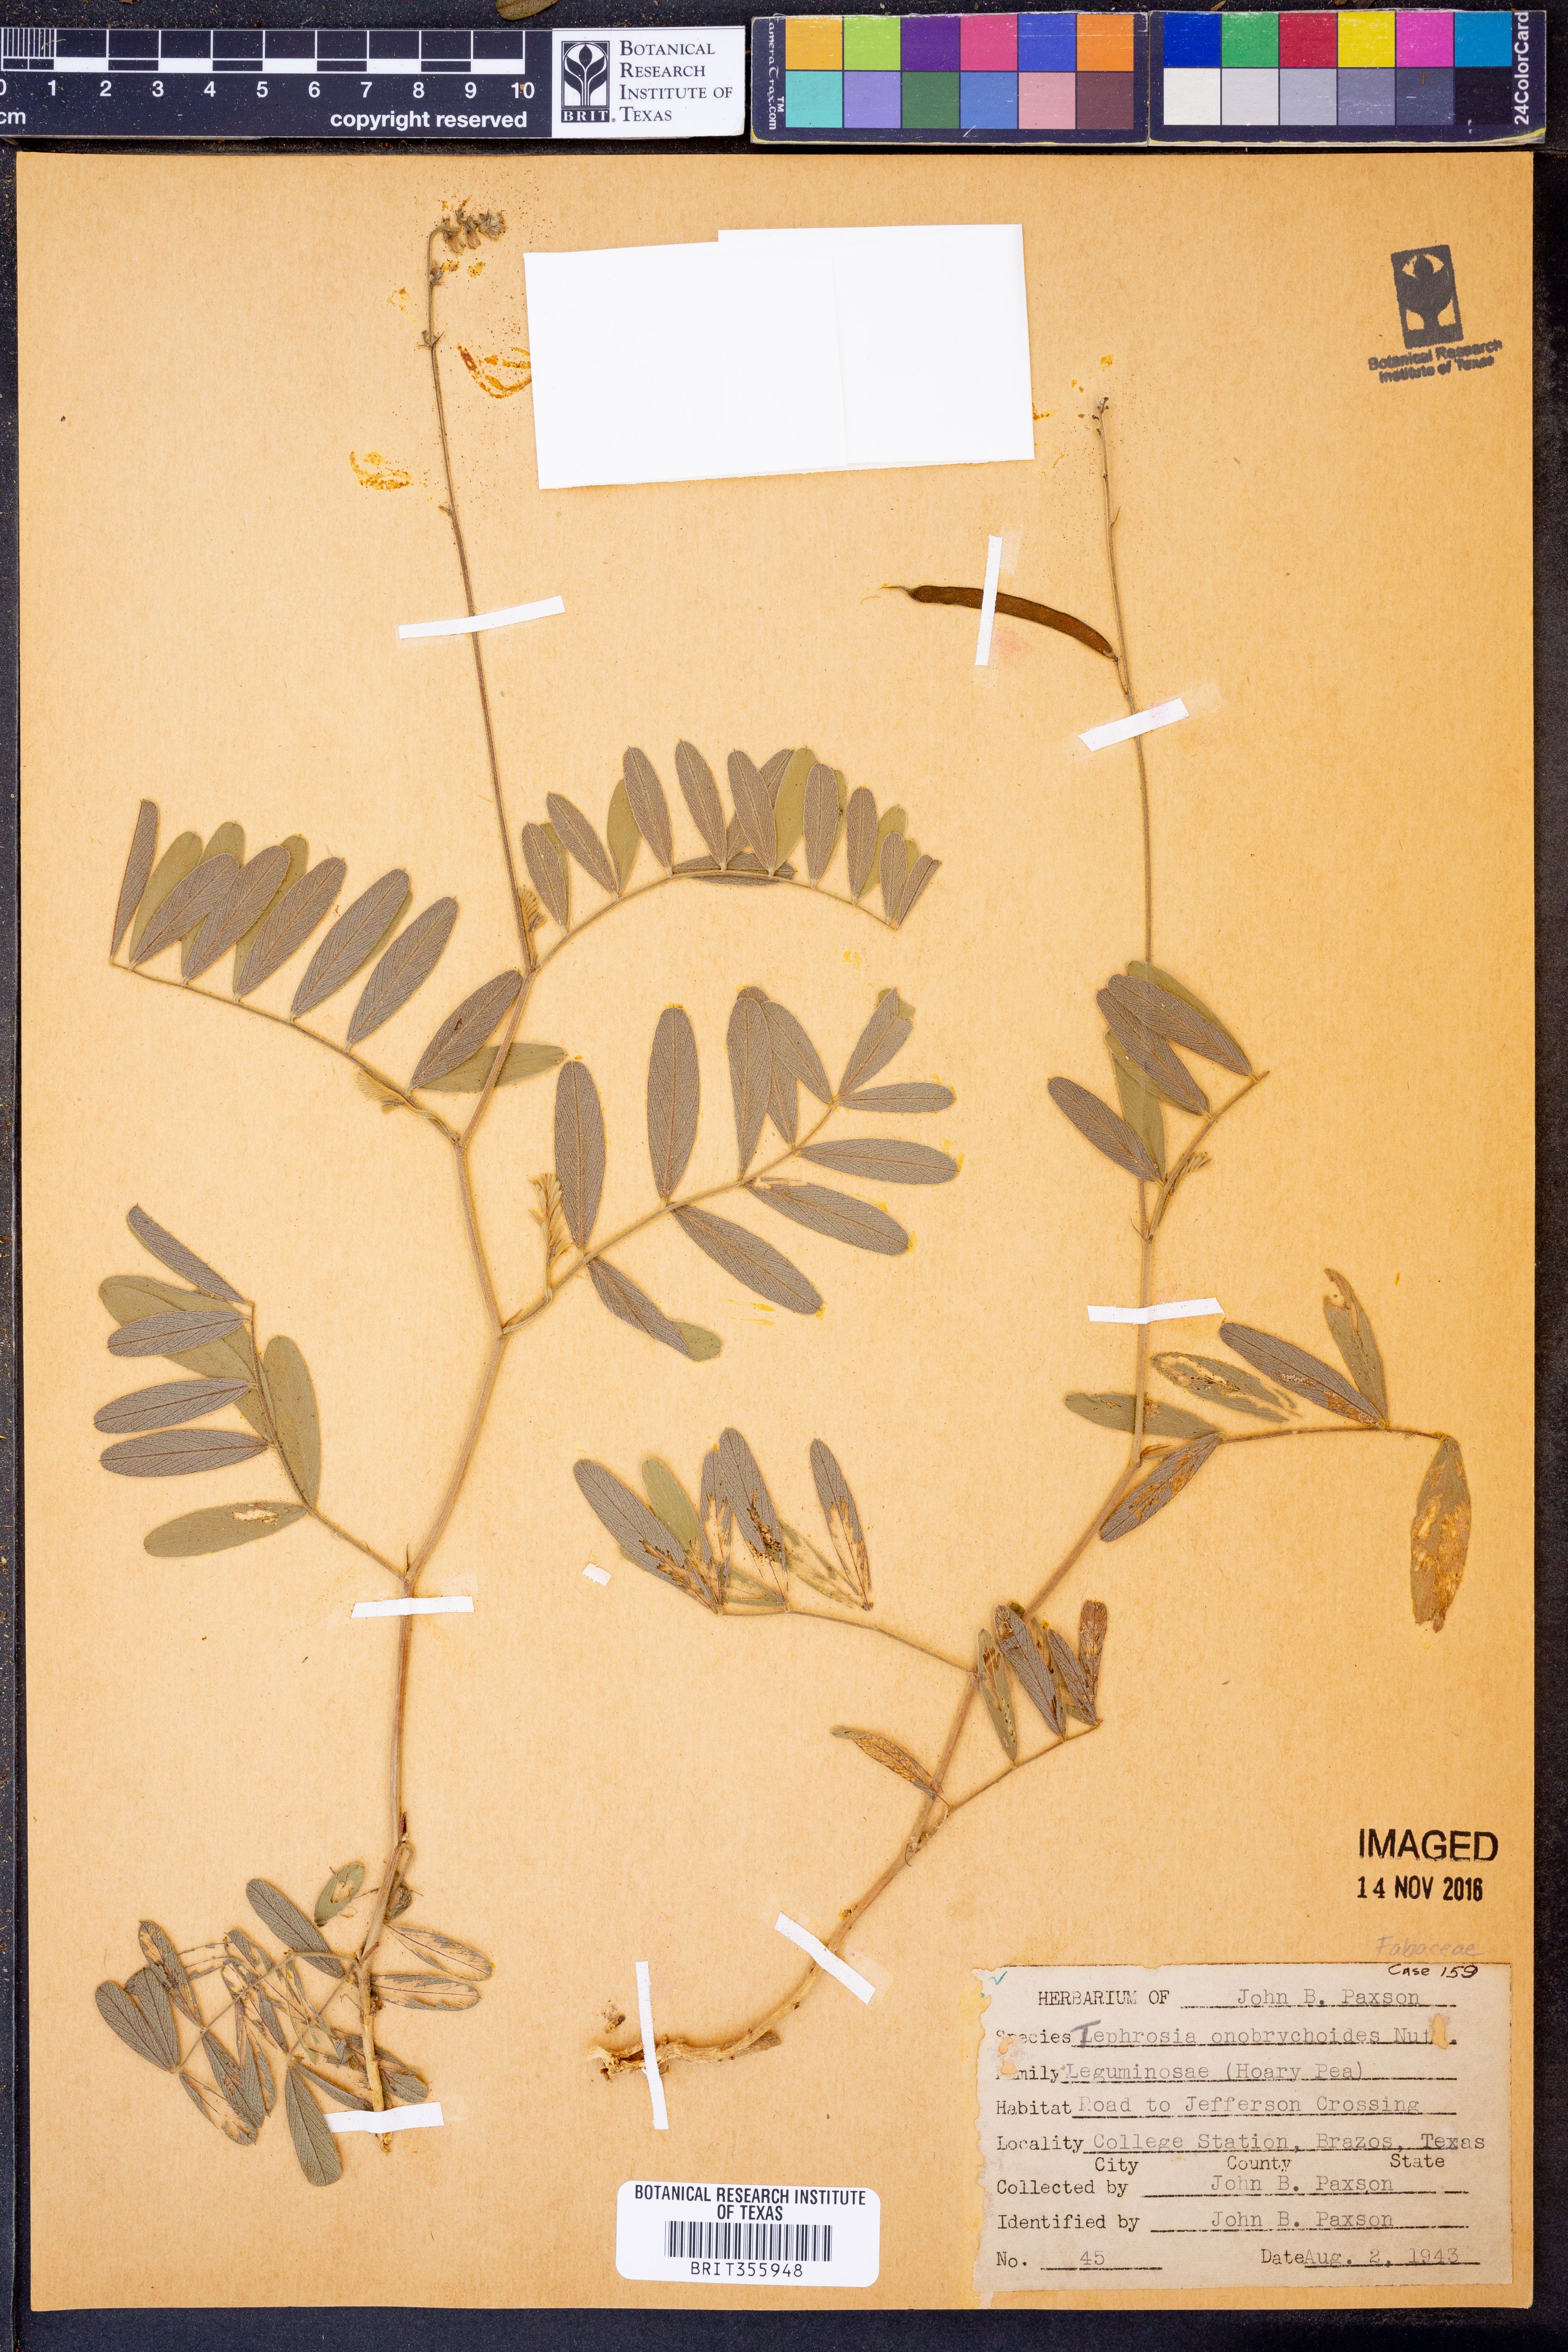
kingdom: Plantae
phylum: Tracheophyta
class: Magnoliopsida
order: Fabales
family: Fabaceae
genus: Tephrosia
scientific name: Tephrosia onobrychoides
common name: Multi-bloom hoary-pea
